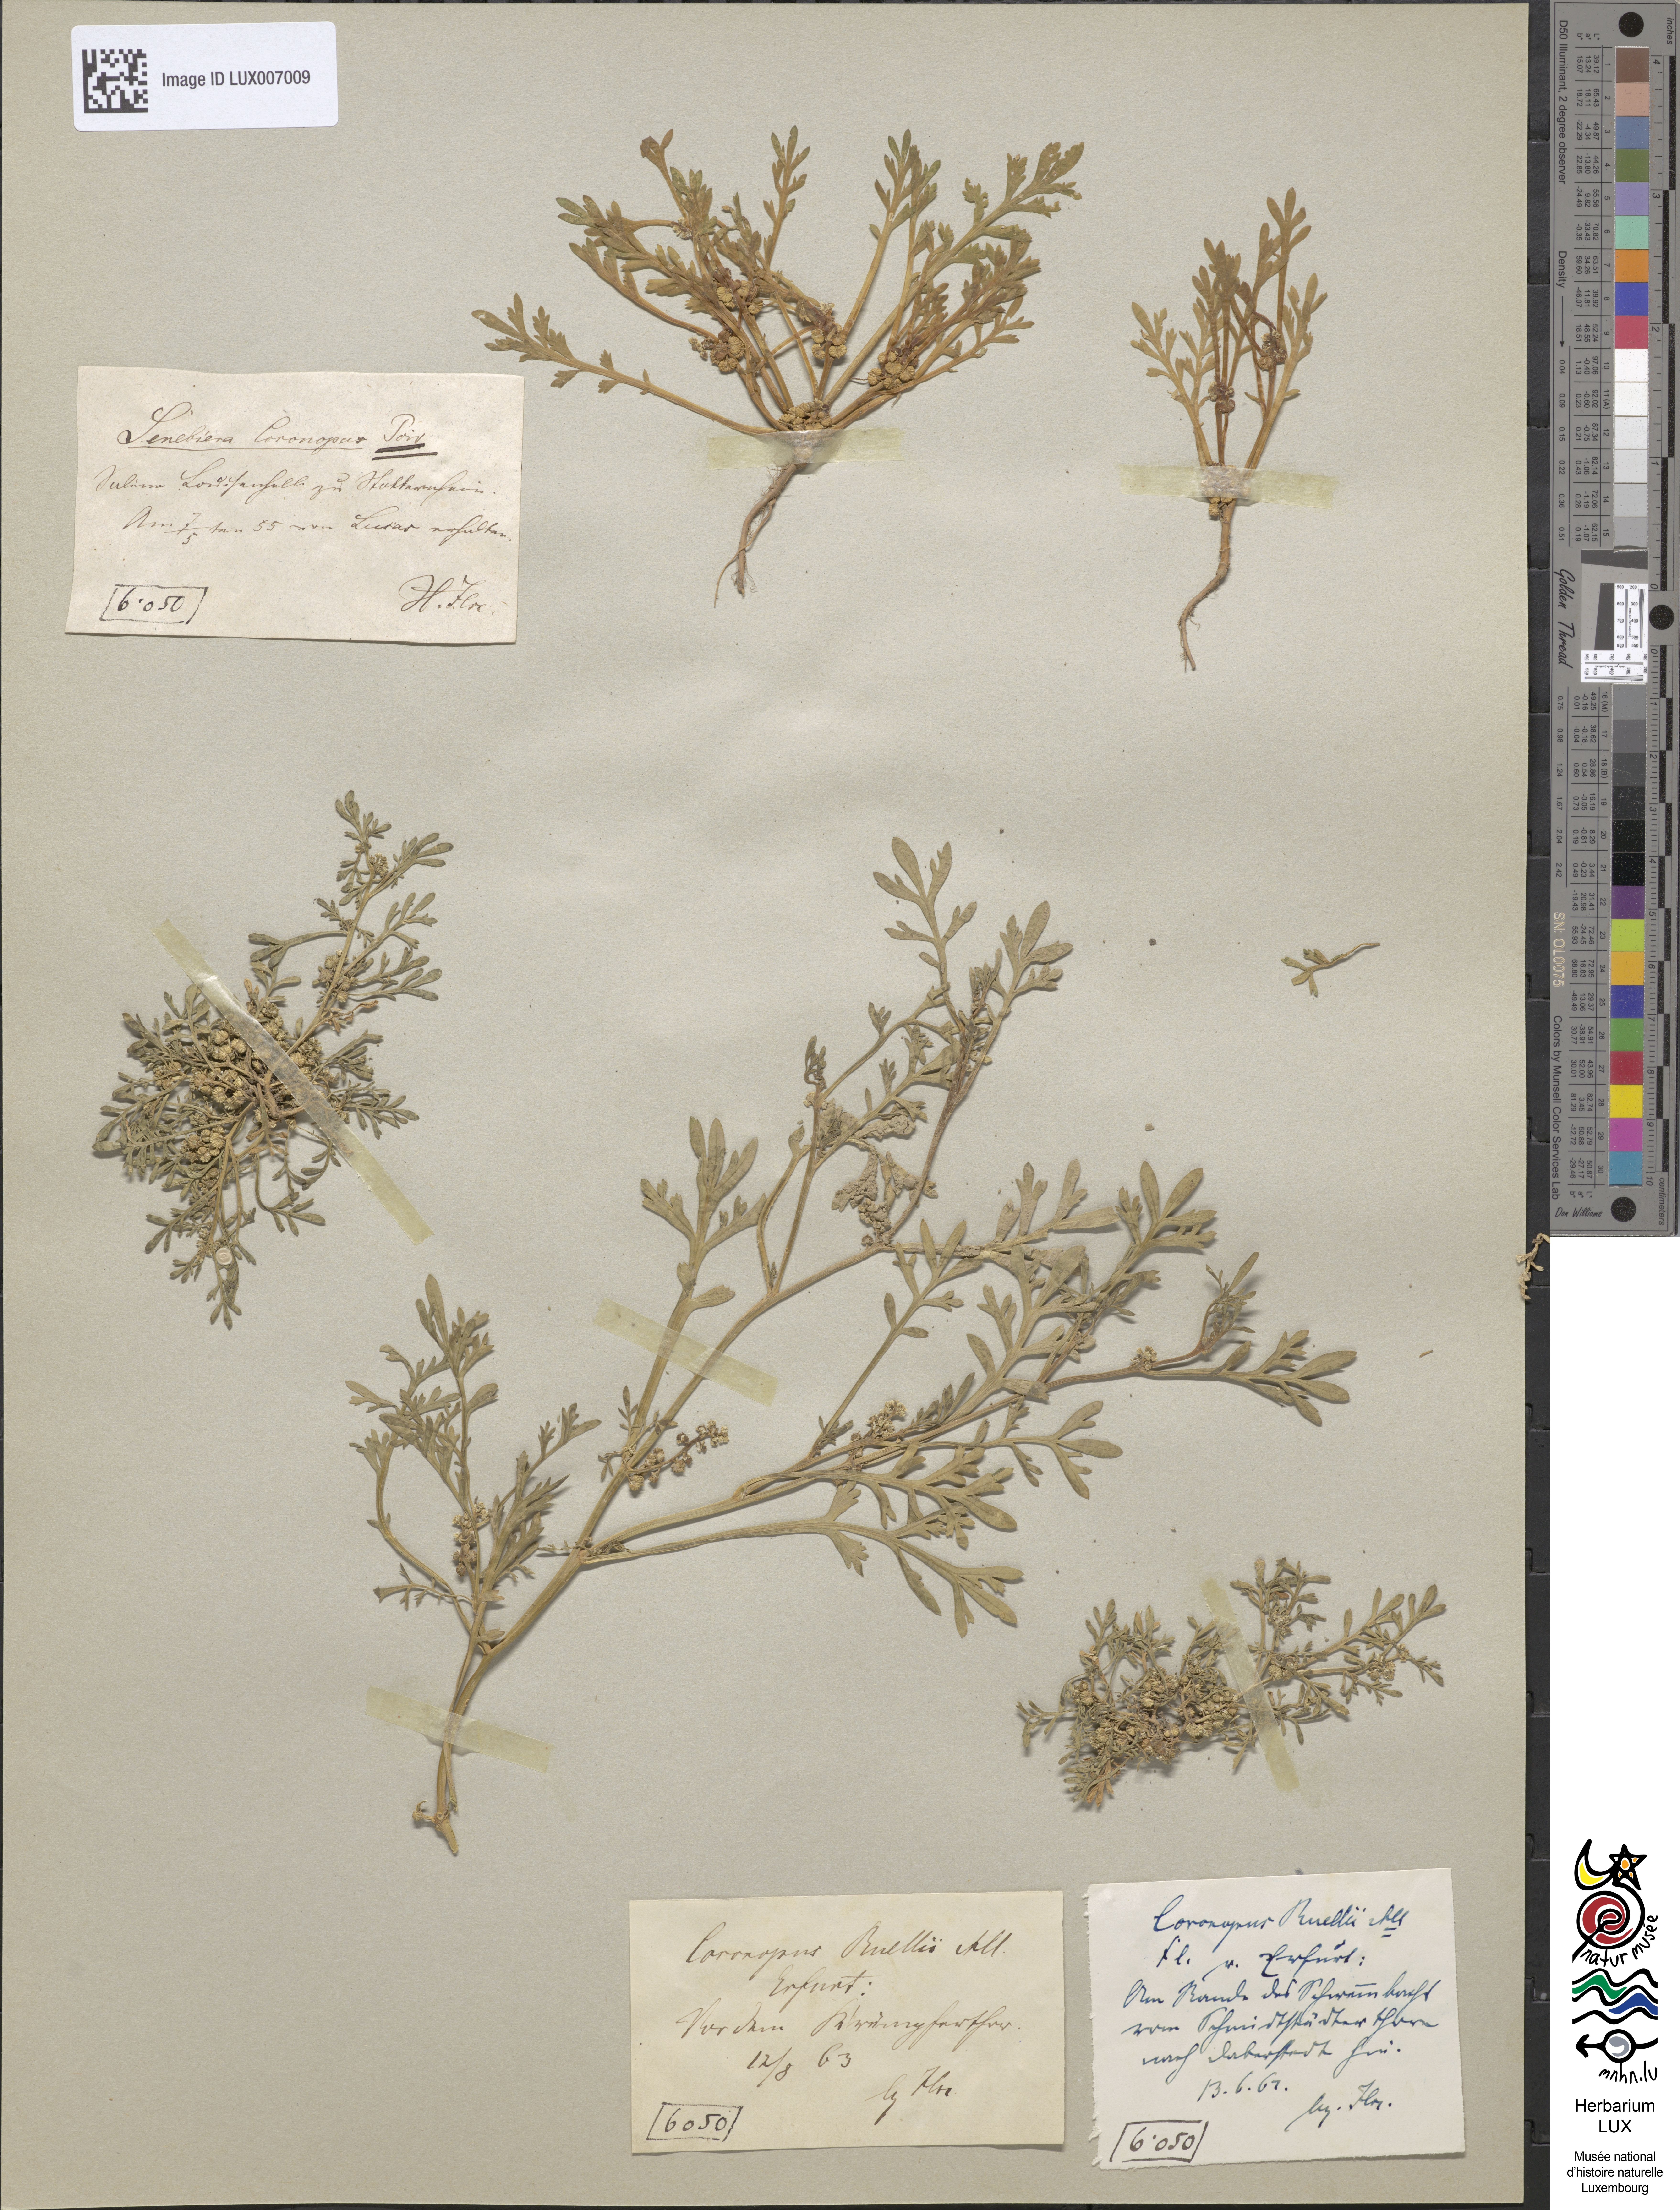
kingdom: Plantae
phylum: Tracheophyta
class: Magnoliopsida
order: Brassicales
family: Brassicaceae
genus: Lepidium
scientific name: Lepidium coronopus
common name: Greater swinecress
